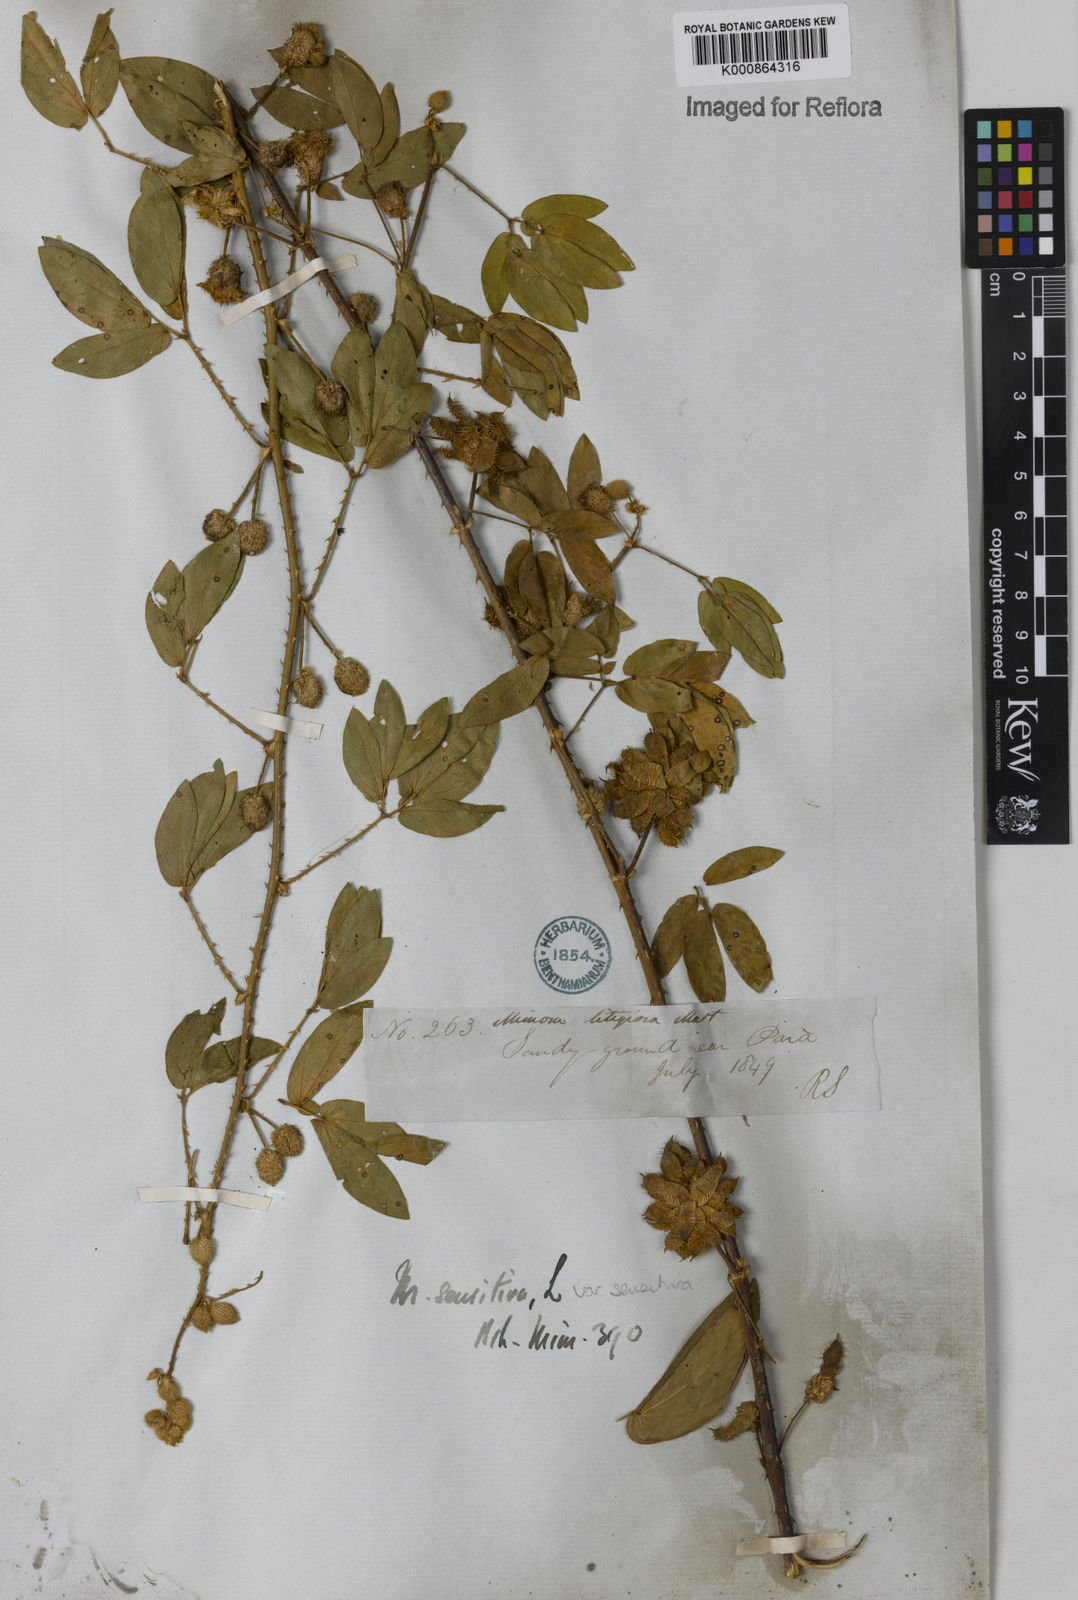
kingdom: Plantae
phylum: Tracheophyta
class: Magnoliopsida
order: Fabales
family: Fabaceae
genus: Mimosa
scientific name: Mimosa sensitiva
